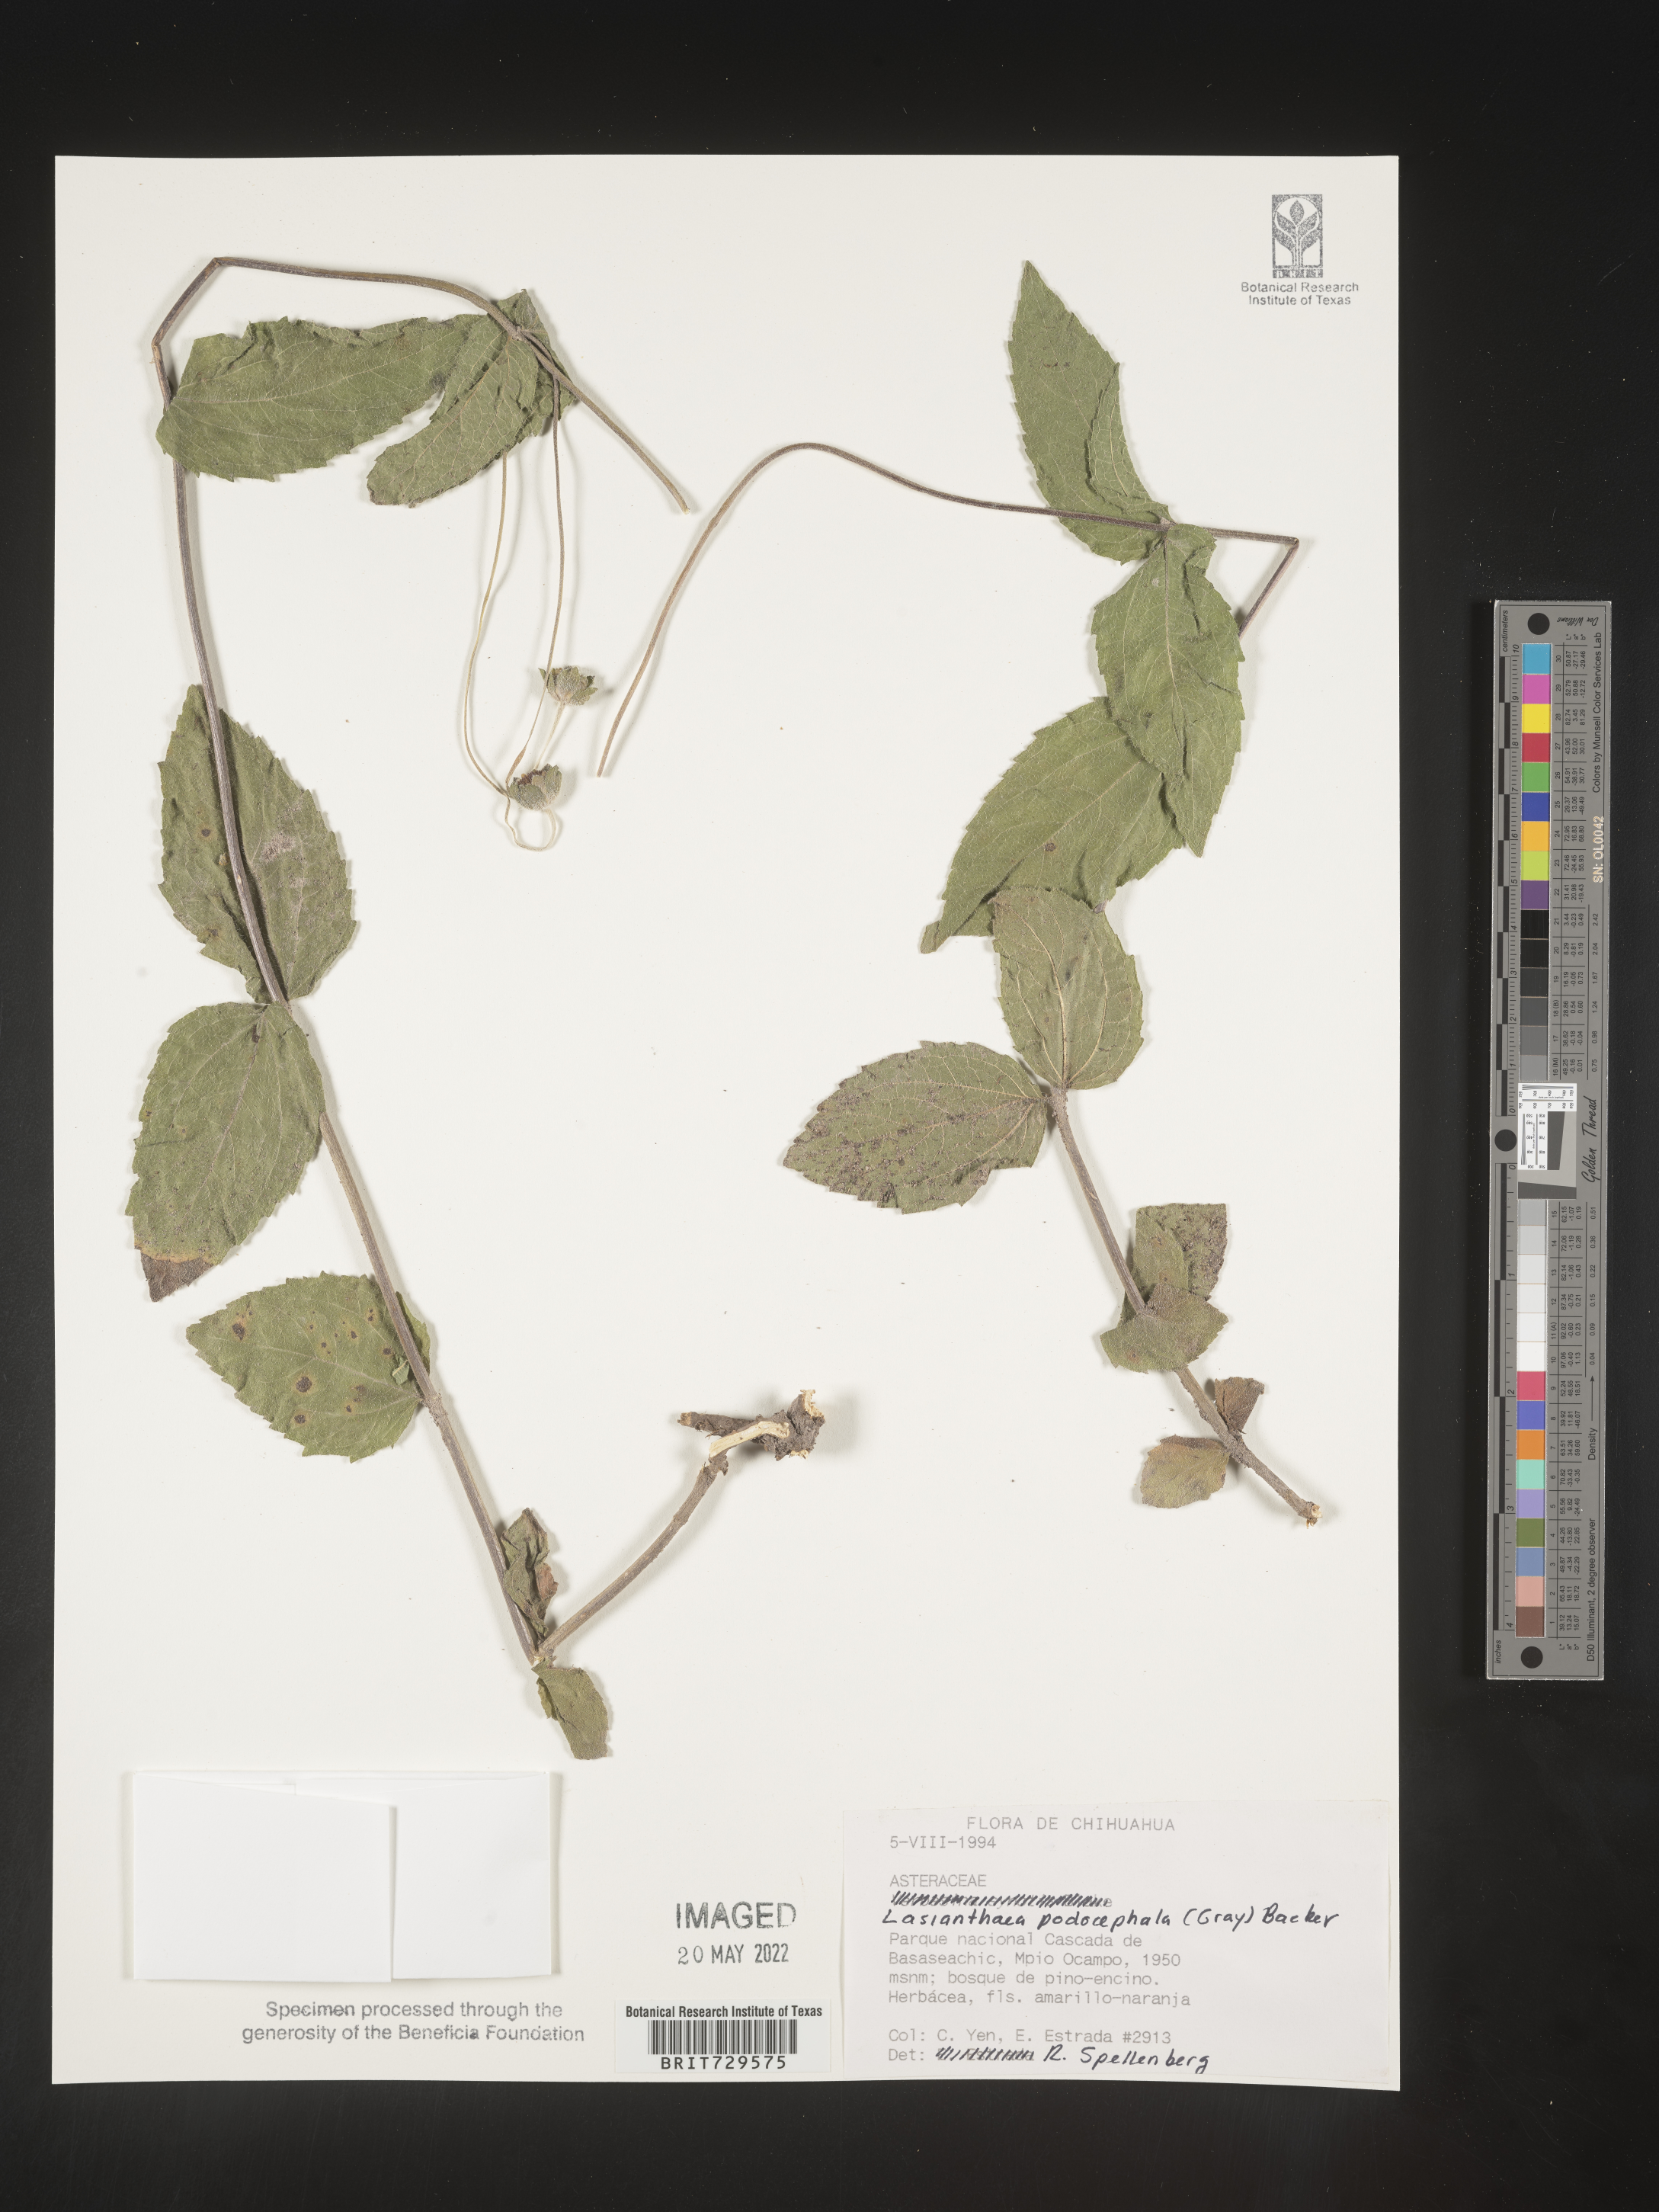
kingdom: Plantae
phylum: Tracheophyta
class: Magnoliopsida
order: Asterales
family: Asteraceae
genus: Lasianthaea
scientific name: Lasianthaea
